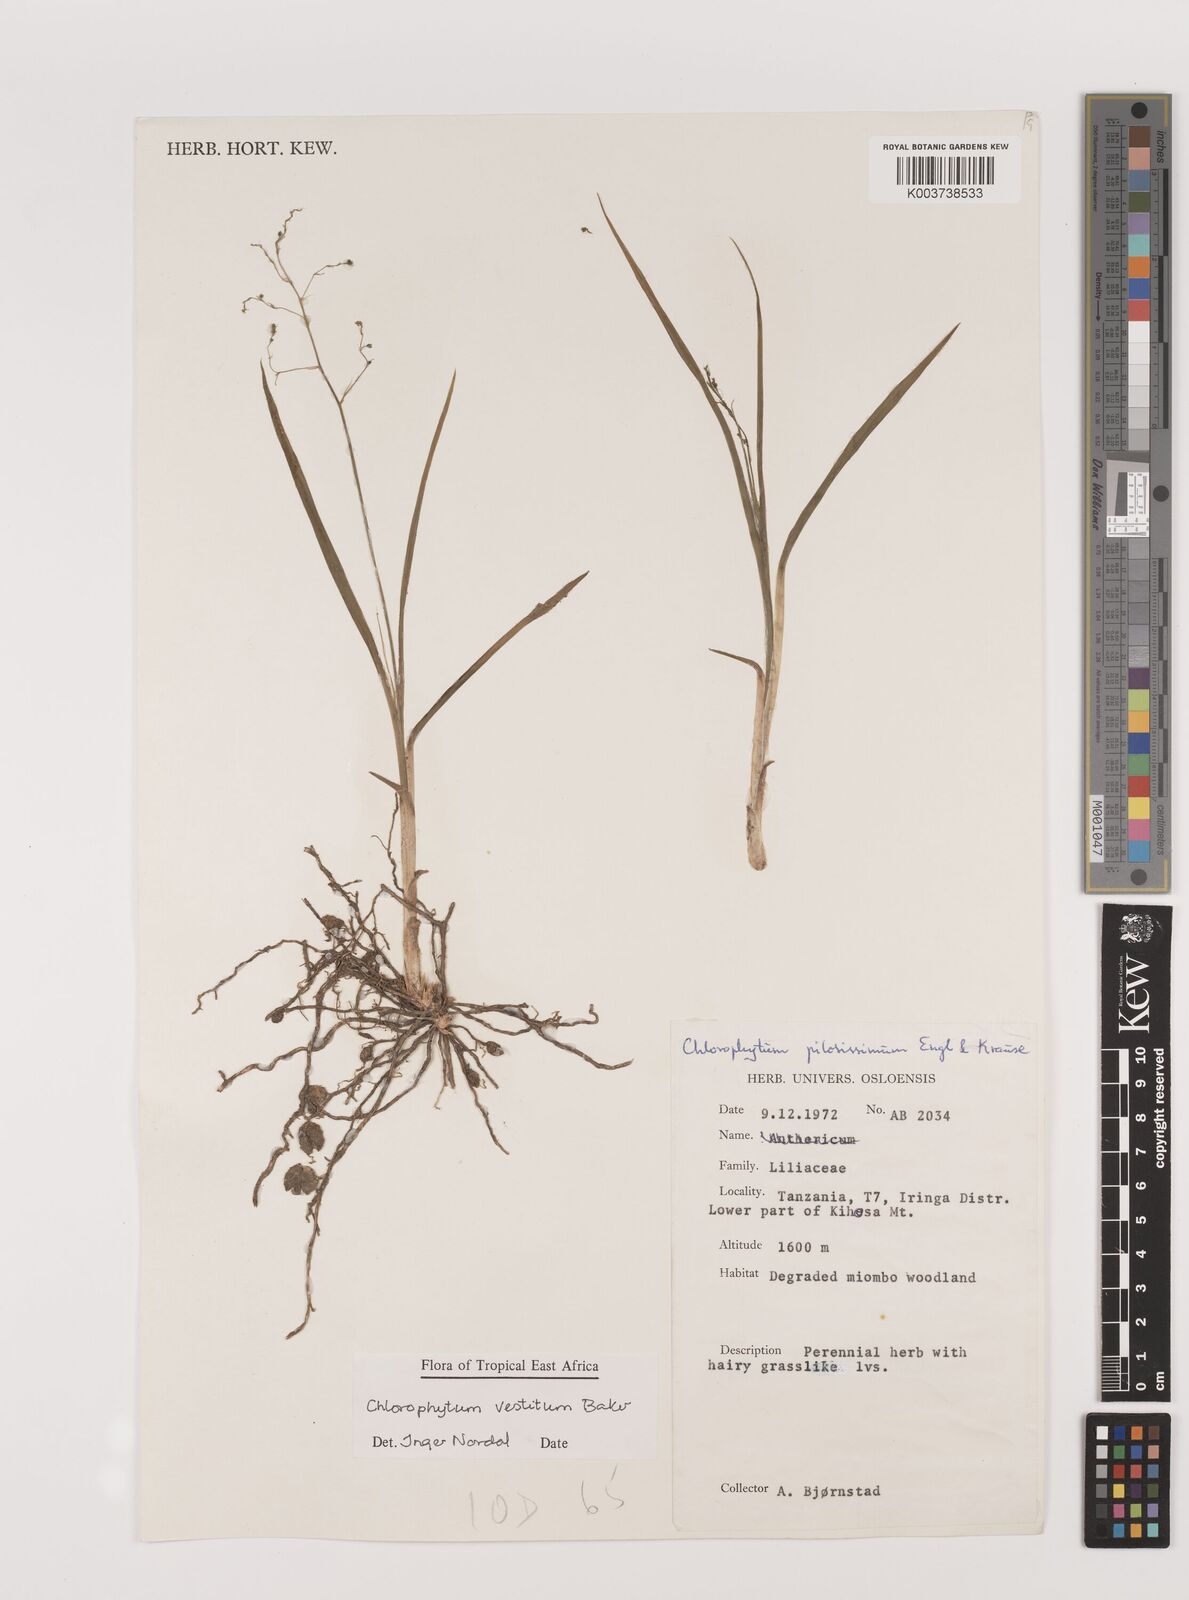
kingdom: Plantae
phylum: Tracheophyta
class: Liliopsida
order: Asparagales
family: Asparagaceae
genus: Chlorophytum
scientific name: Chlorophytum vestitum
